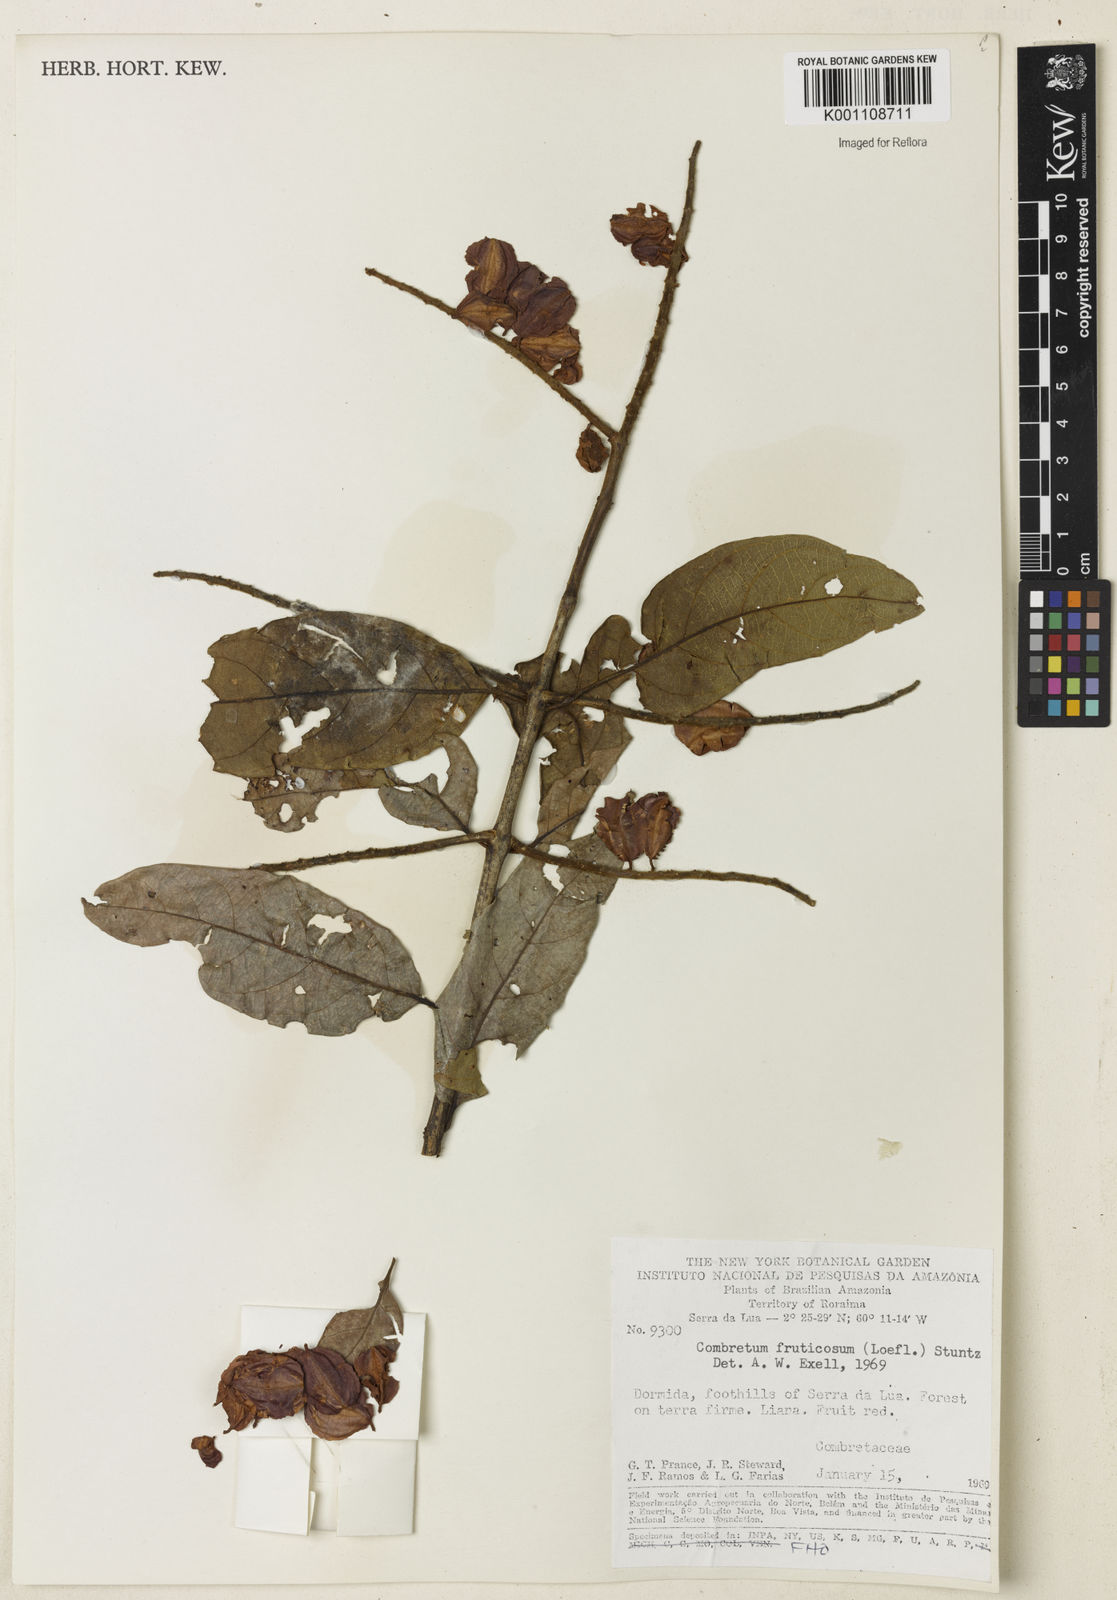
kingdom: Plantae
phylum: Tracheophyta
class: Magnoliopsida
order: Myrtales
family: Combretaceae
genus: Combretum
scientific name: Combretum fruticosum
